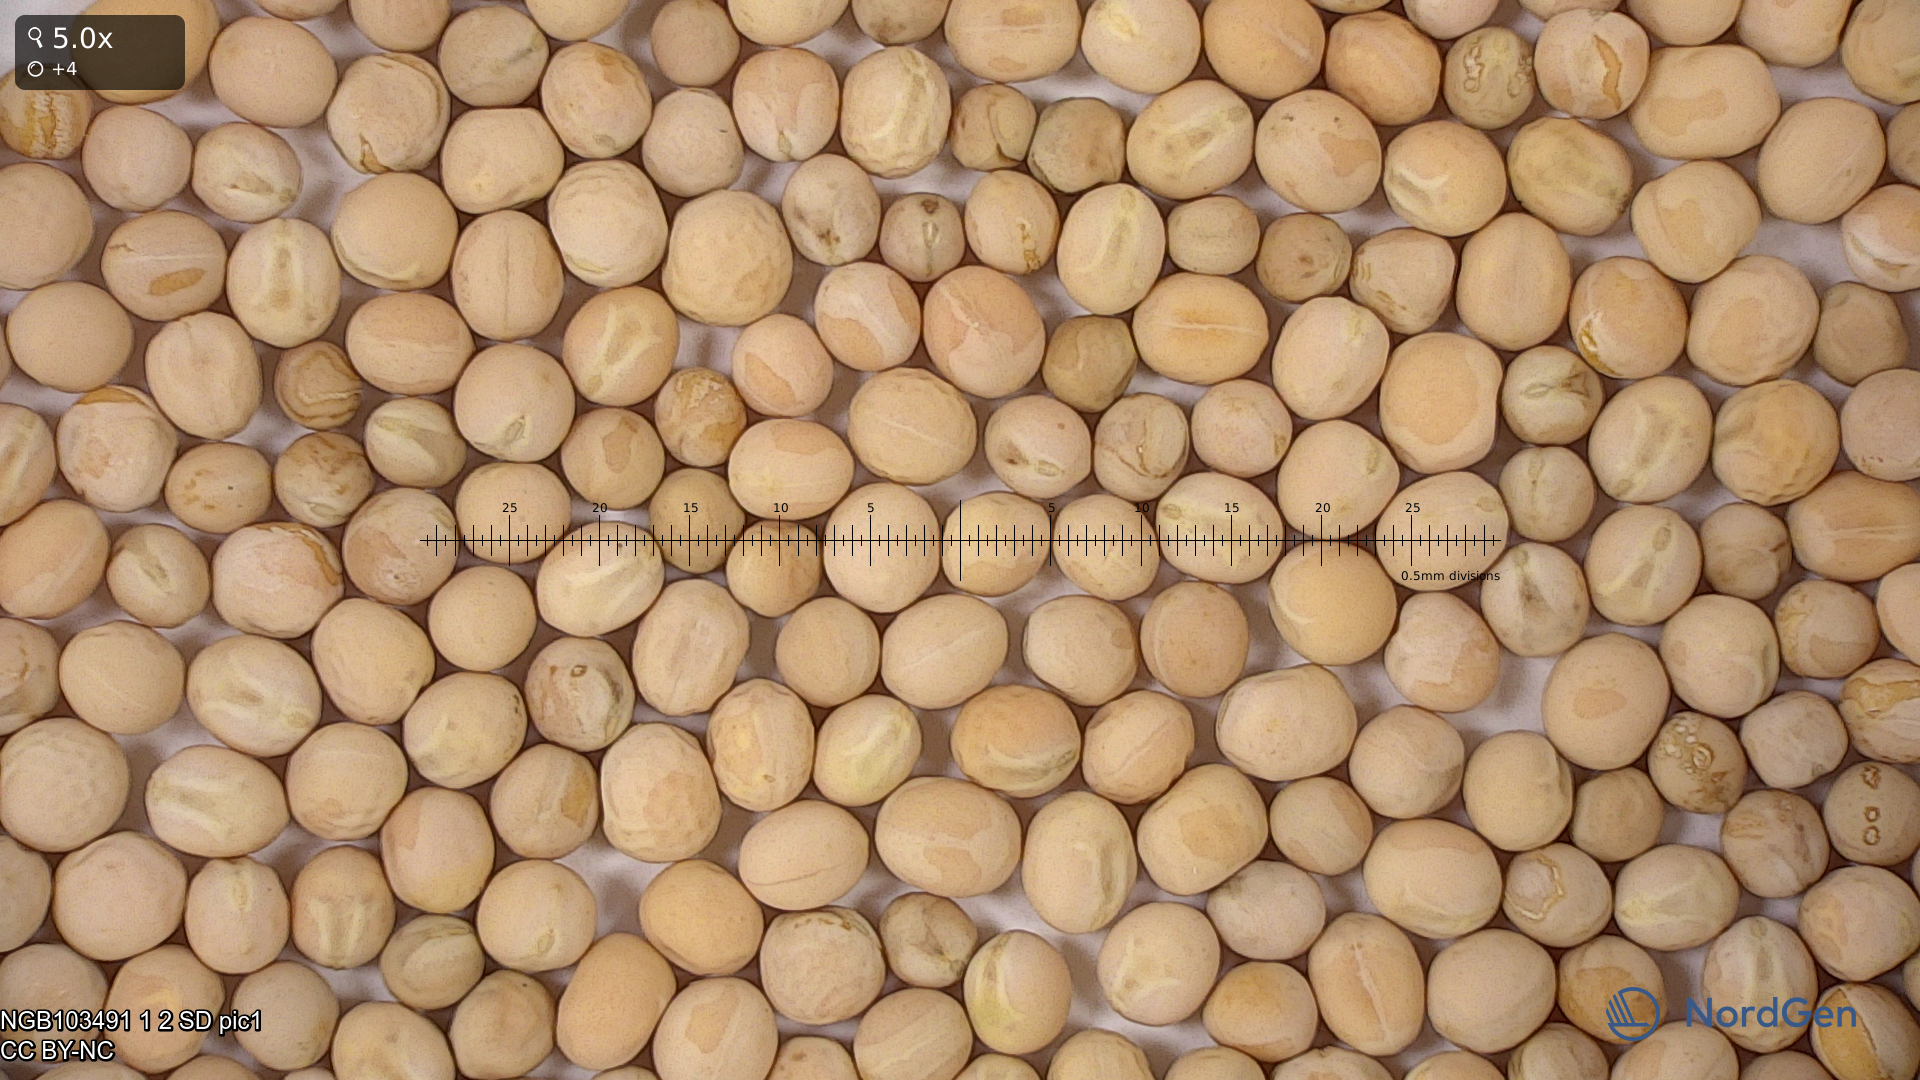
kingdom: Plantae
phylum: Tracheophyta
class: Magnoliopsida
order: Fabales
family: Fabaceae
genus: Lathyrus
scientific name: Lathyrus oleraceus
